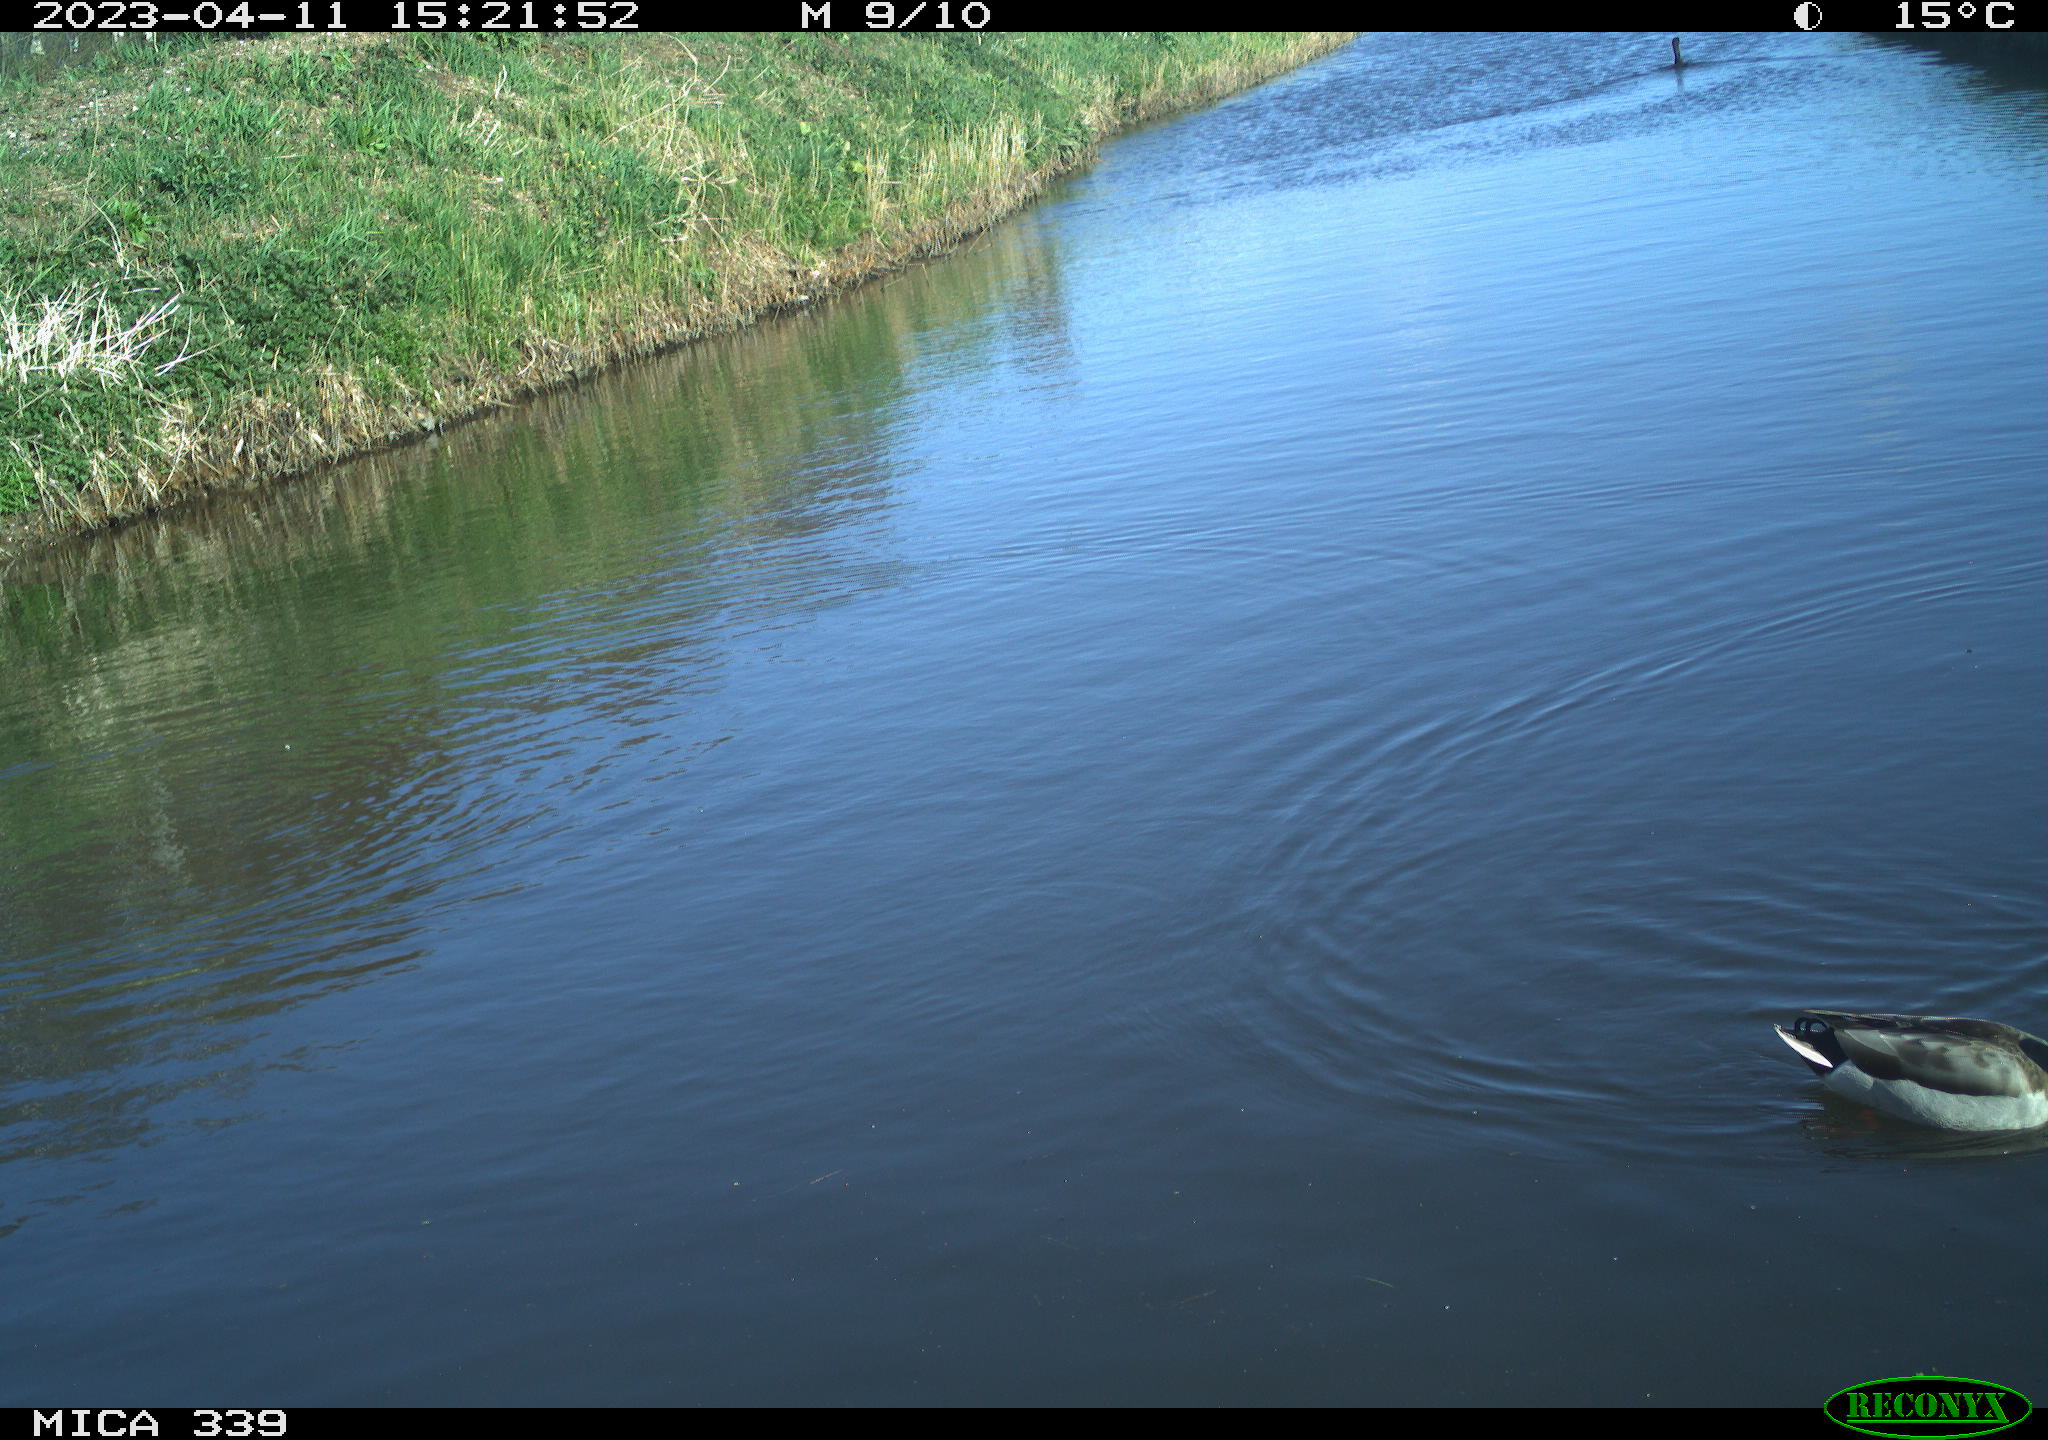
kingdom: Animalia
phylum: Chordata
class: Aves
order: Anseriformes
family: Anatidae
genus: Anas
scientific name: Anas platyrhynchos
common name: Mallard
